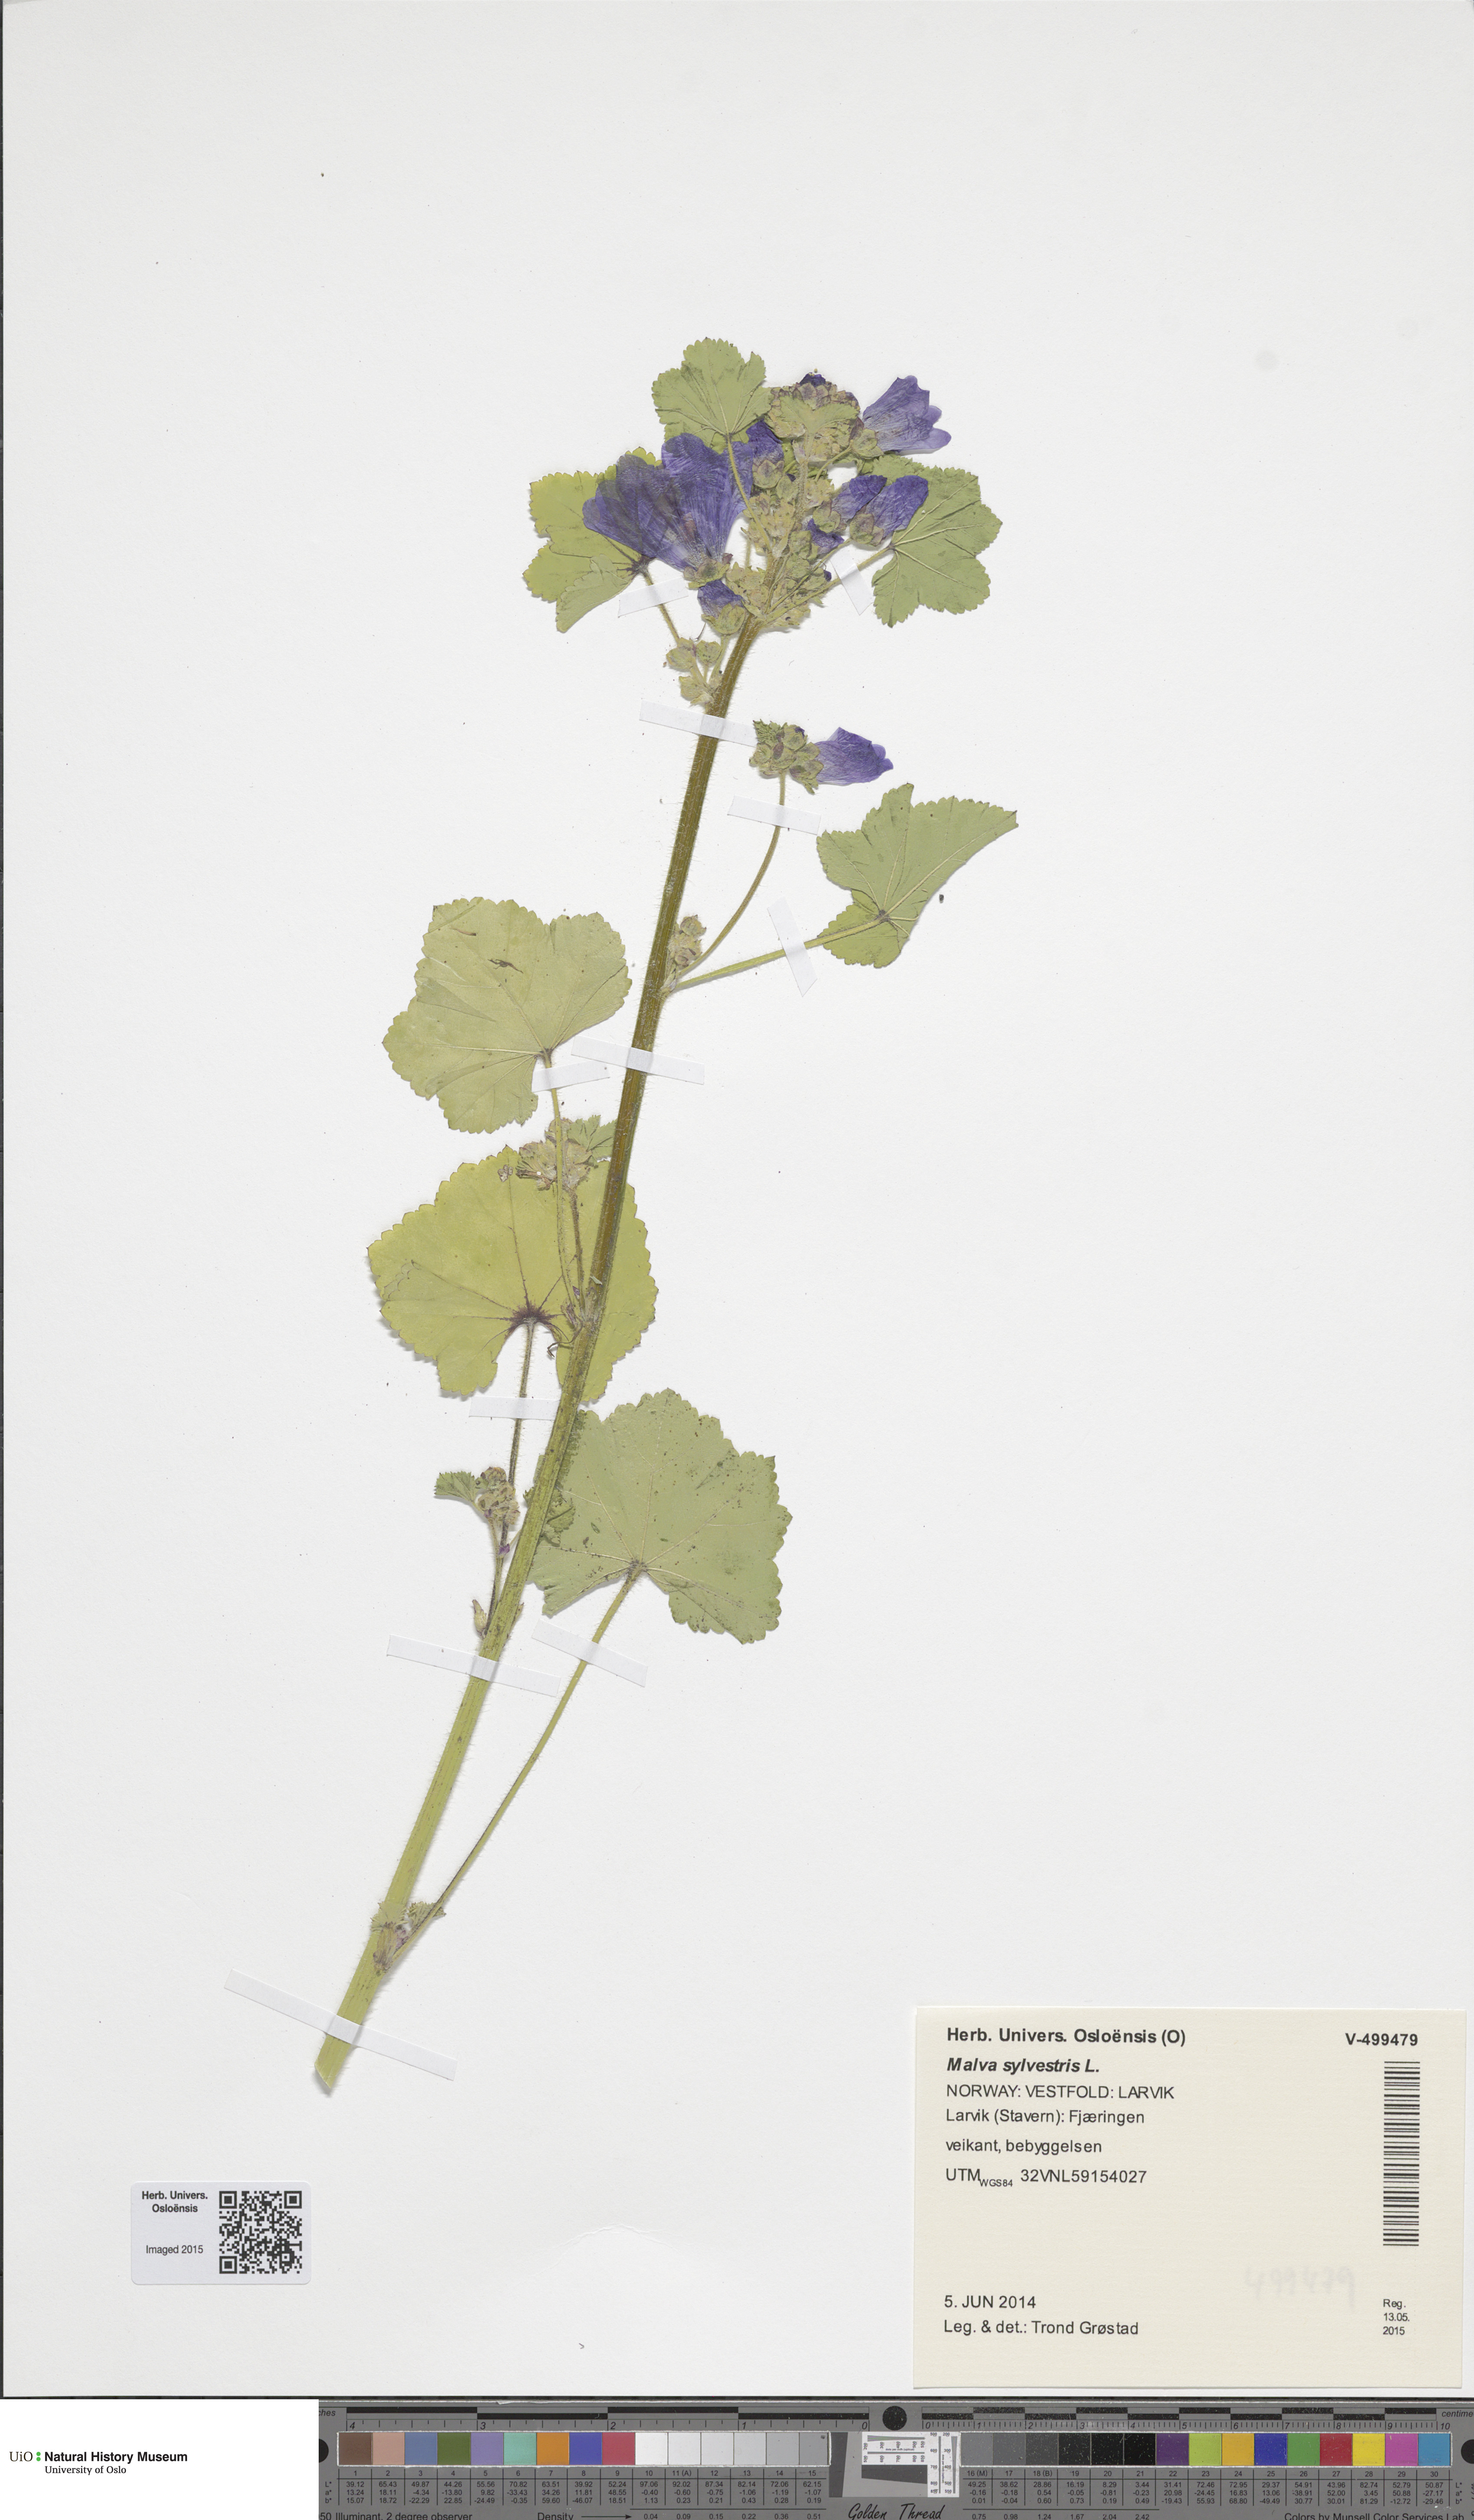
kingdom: Plantae
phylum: Tracheophyta
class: Magnoliopsida
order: Malvales
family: Malvaceae
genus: Malva
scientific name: Malva sylvestris
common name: Common mallow
